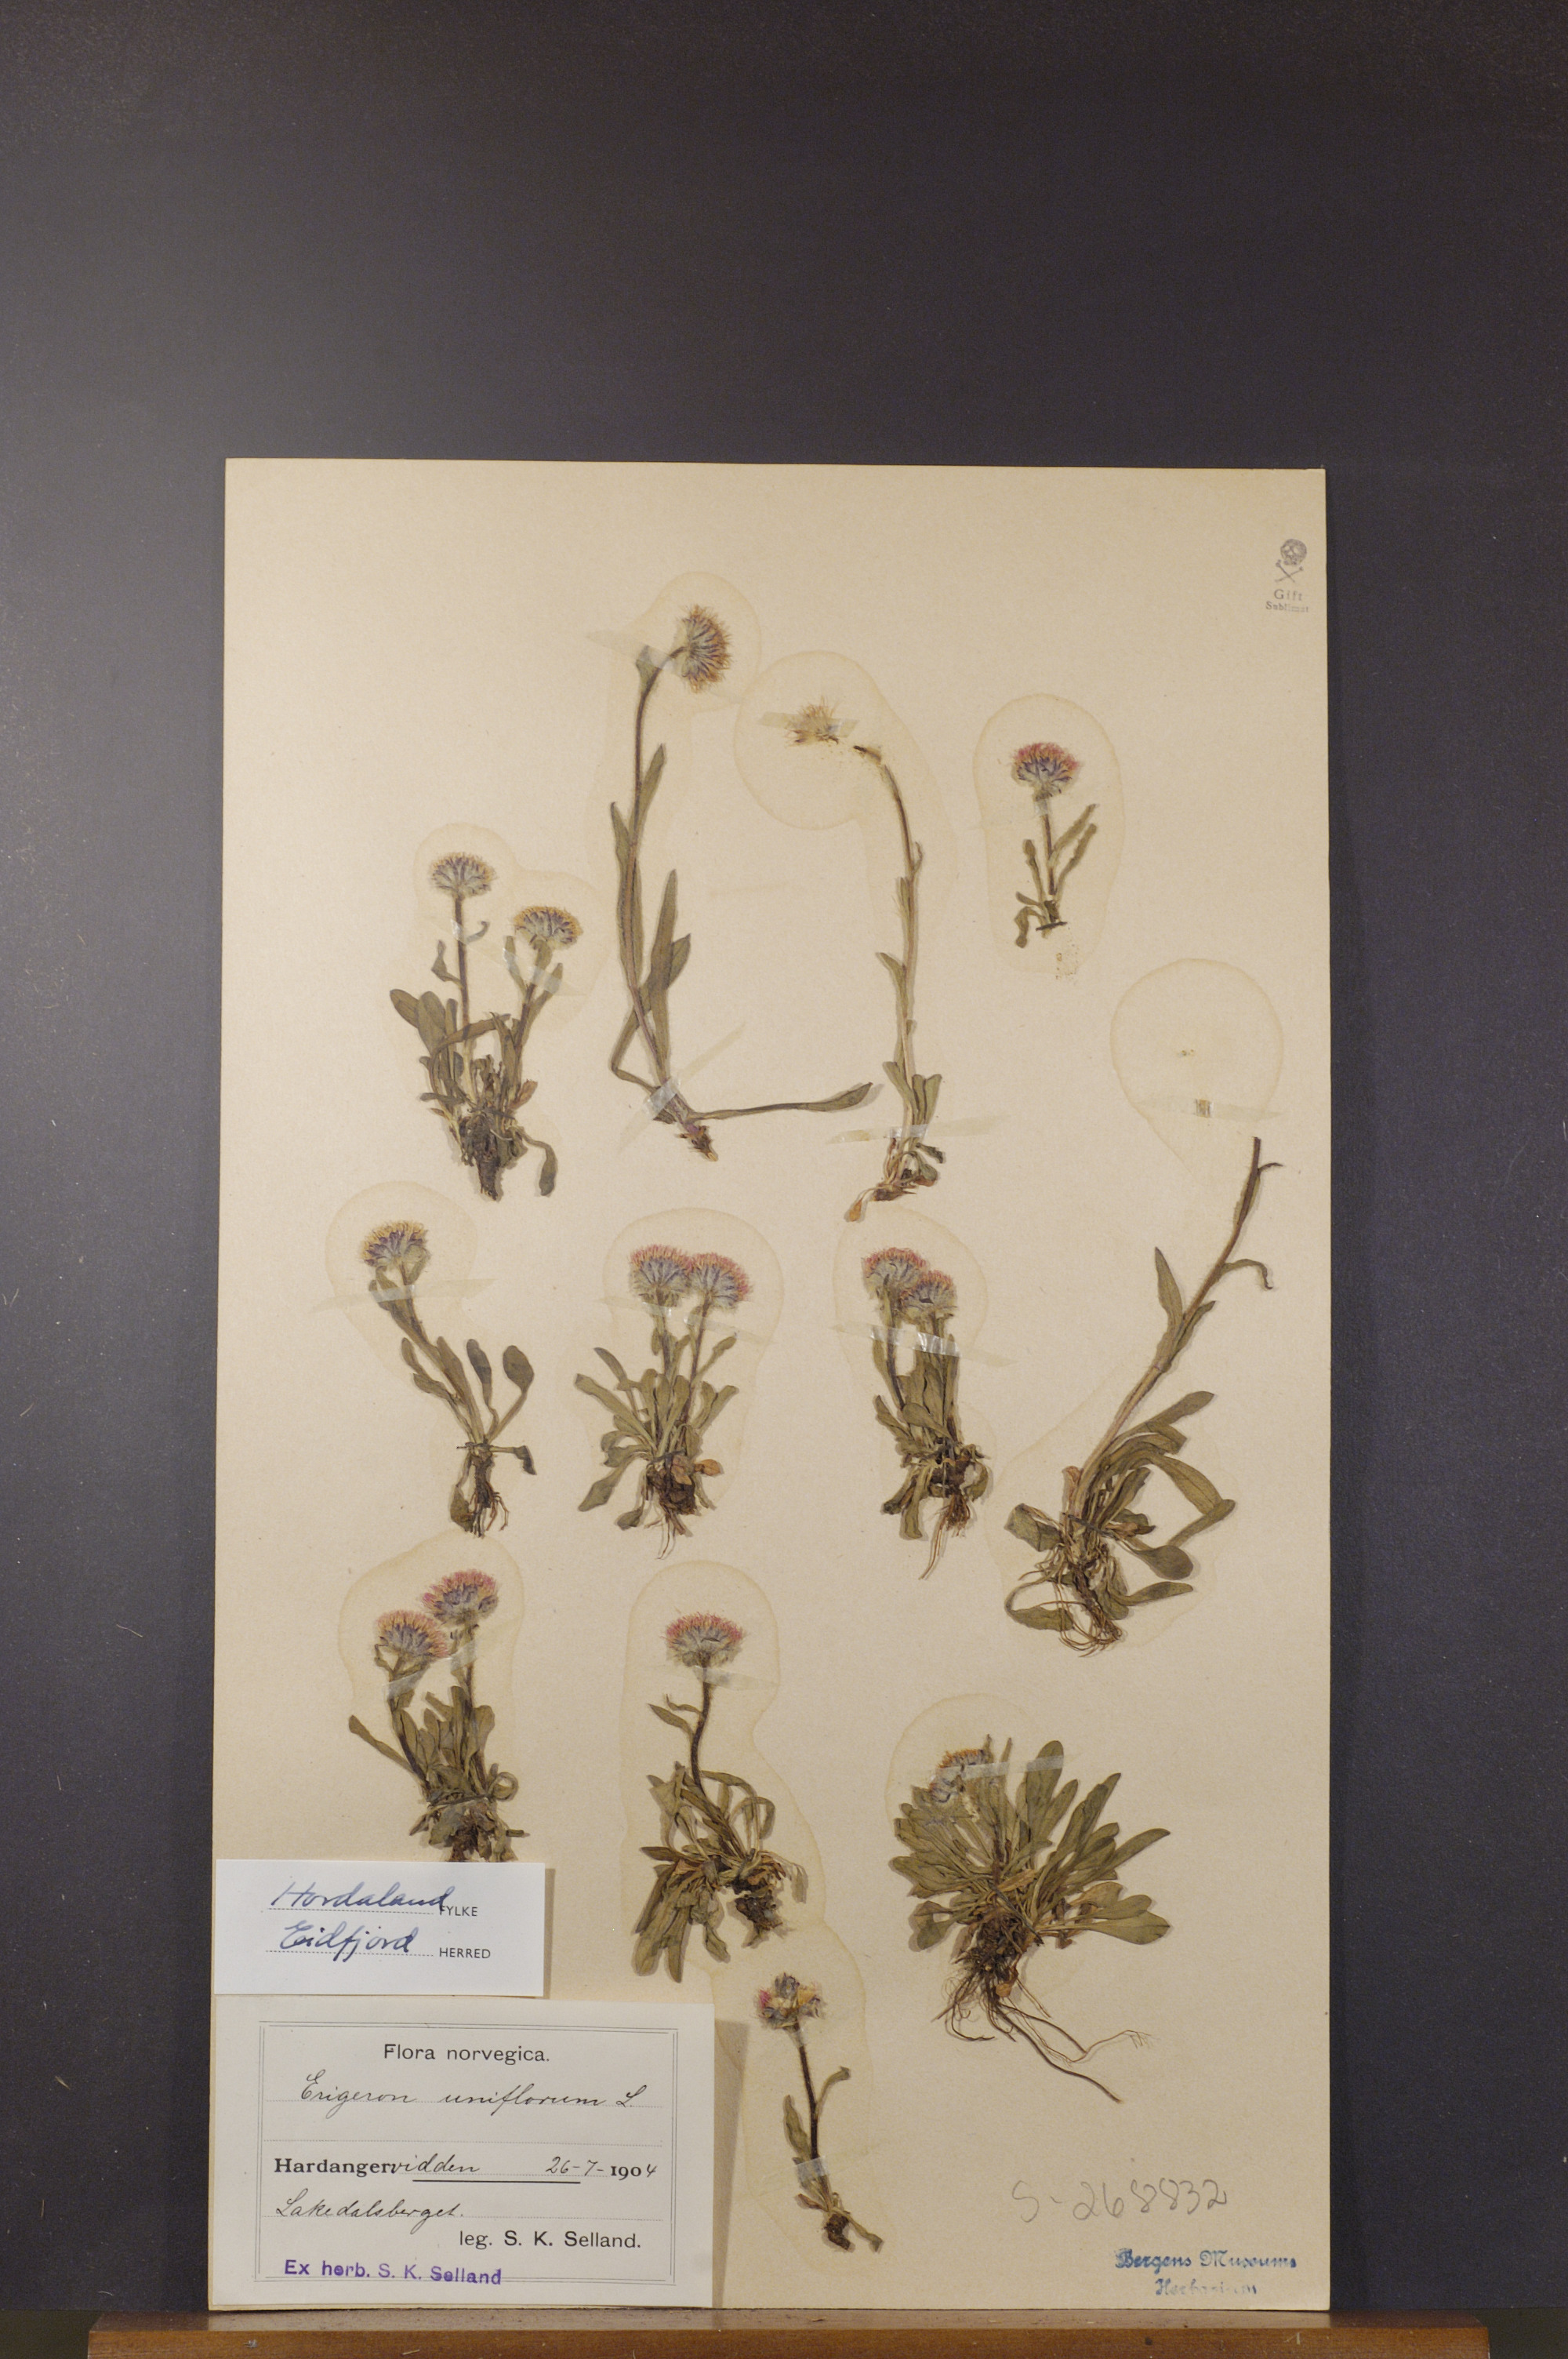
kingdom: Plantae
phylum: Tracheophyta
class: Magnoliopsida
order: Asterales
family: Asteraceae
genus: Erigeron
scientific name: Erigeron uniflorus
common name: Northern daisy
